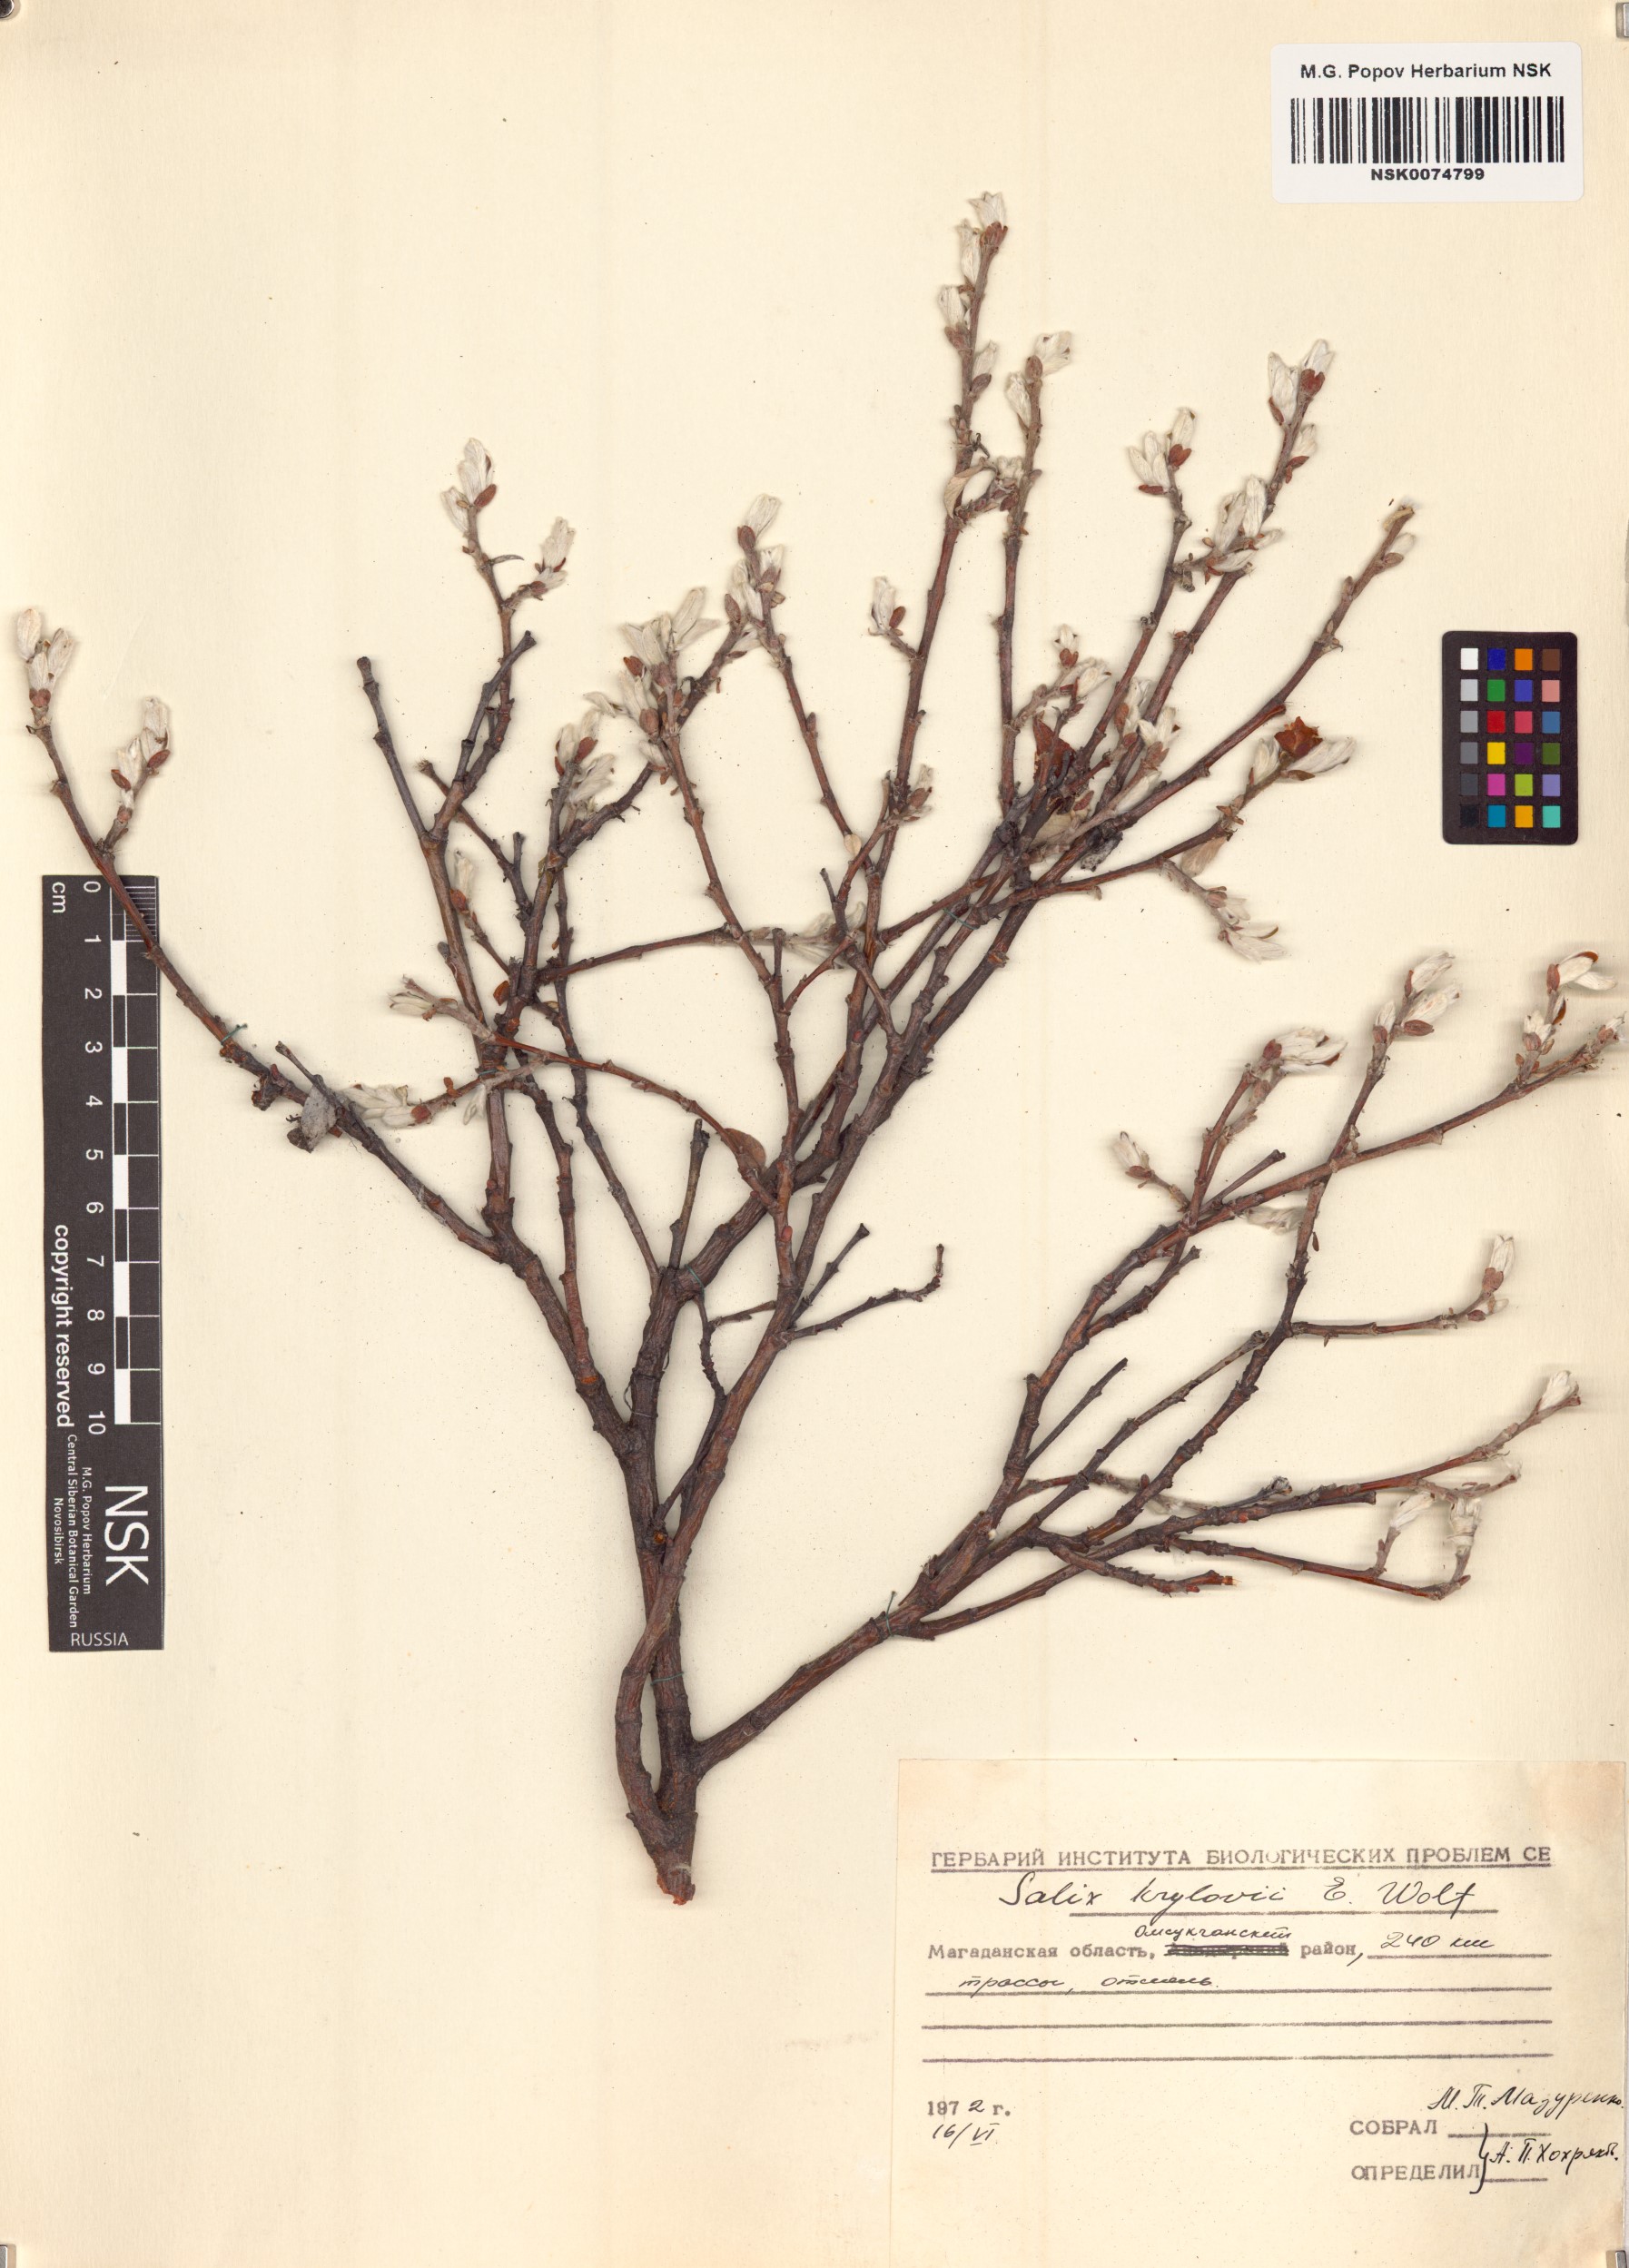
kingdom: Plantae
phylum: Tracheophyta
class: Magnoliopsida
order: Malpighiales
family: Salicaceae
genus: Salix
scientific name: Salix krylovii
